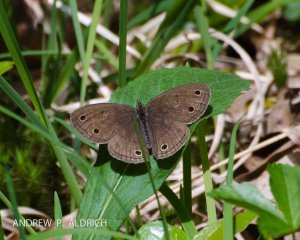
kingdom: Animalia
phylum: Arthropoda
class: Insecta
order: Lepidoptera
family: Nymphalidae
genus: Euptychia
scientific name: Euptychia cymela
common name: Little Wood Satyr
